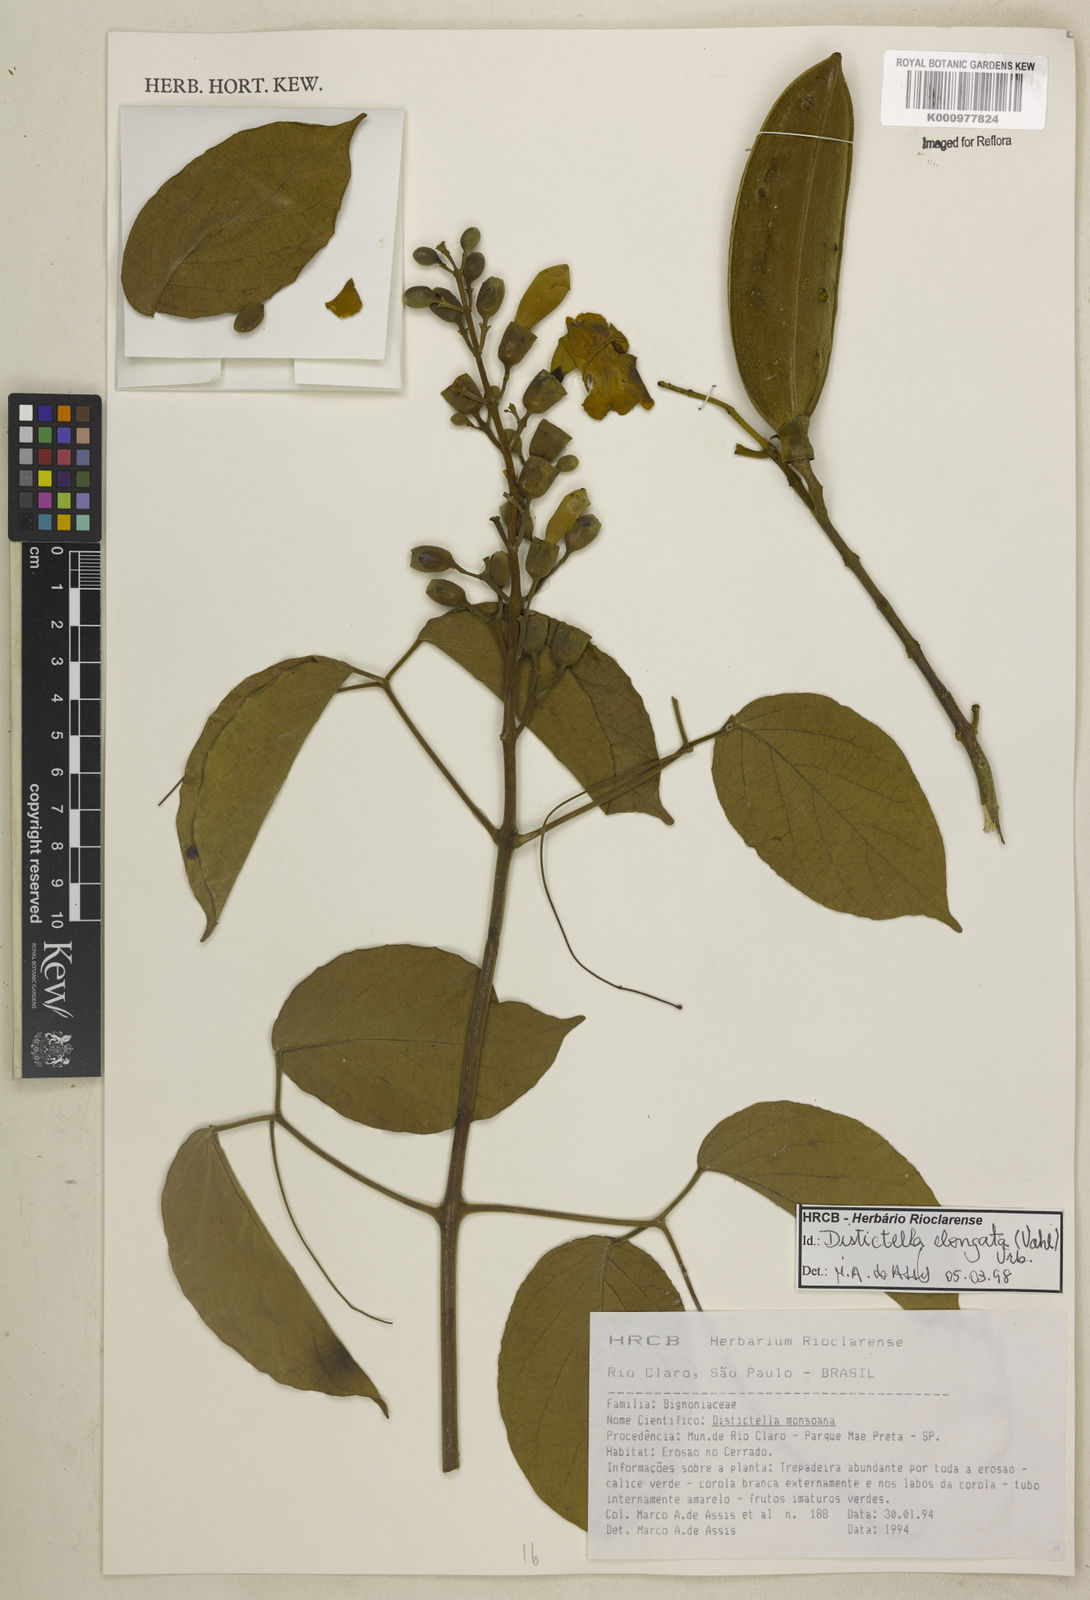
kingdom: Plantae
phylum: Tracheophyta
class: Magnoliopsida
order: Lamiales
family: Bignoniaceae
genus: Amphilophium
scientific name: Amphilophium elongatum
